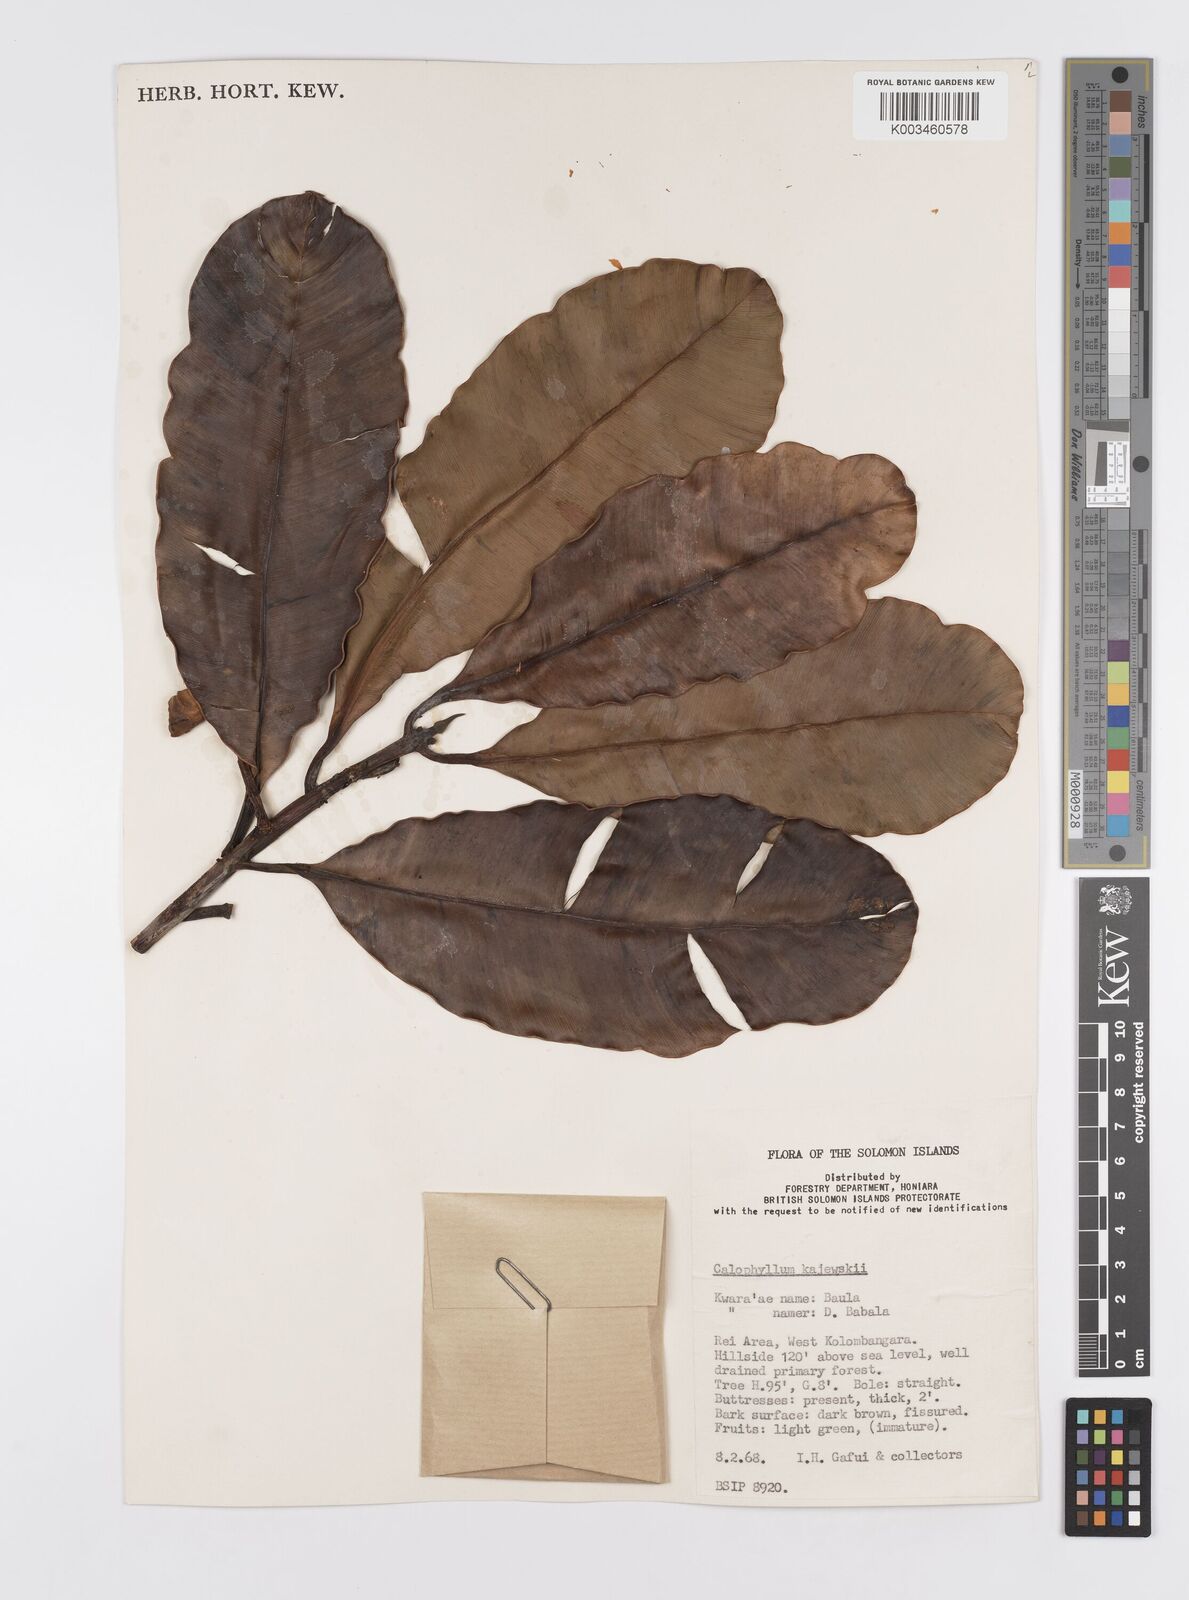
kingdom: Plantae
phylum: Tracheophyta
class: Magnoliopsida
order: Malpighiales
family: Calophyllaceae
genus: Calophyllum
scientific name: Calophyllum peekelii
